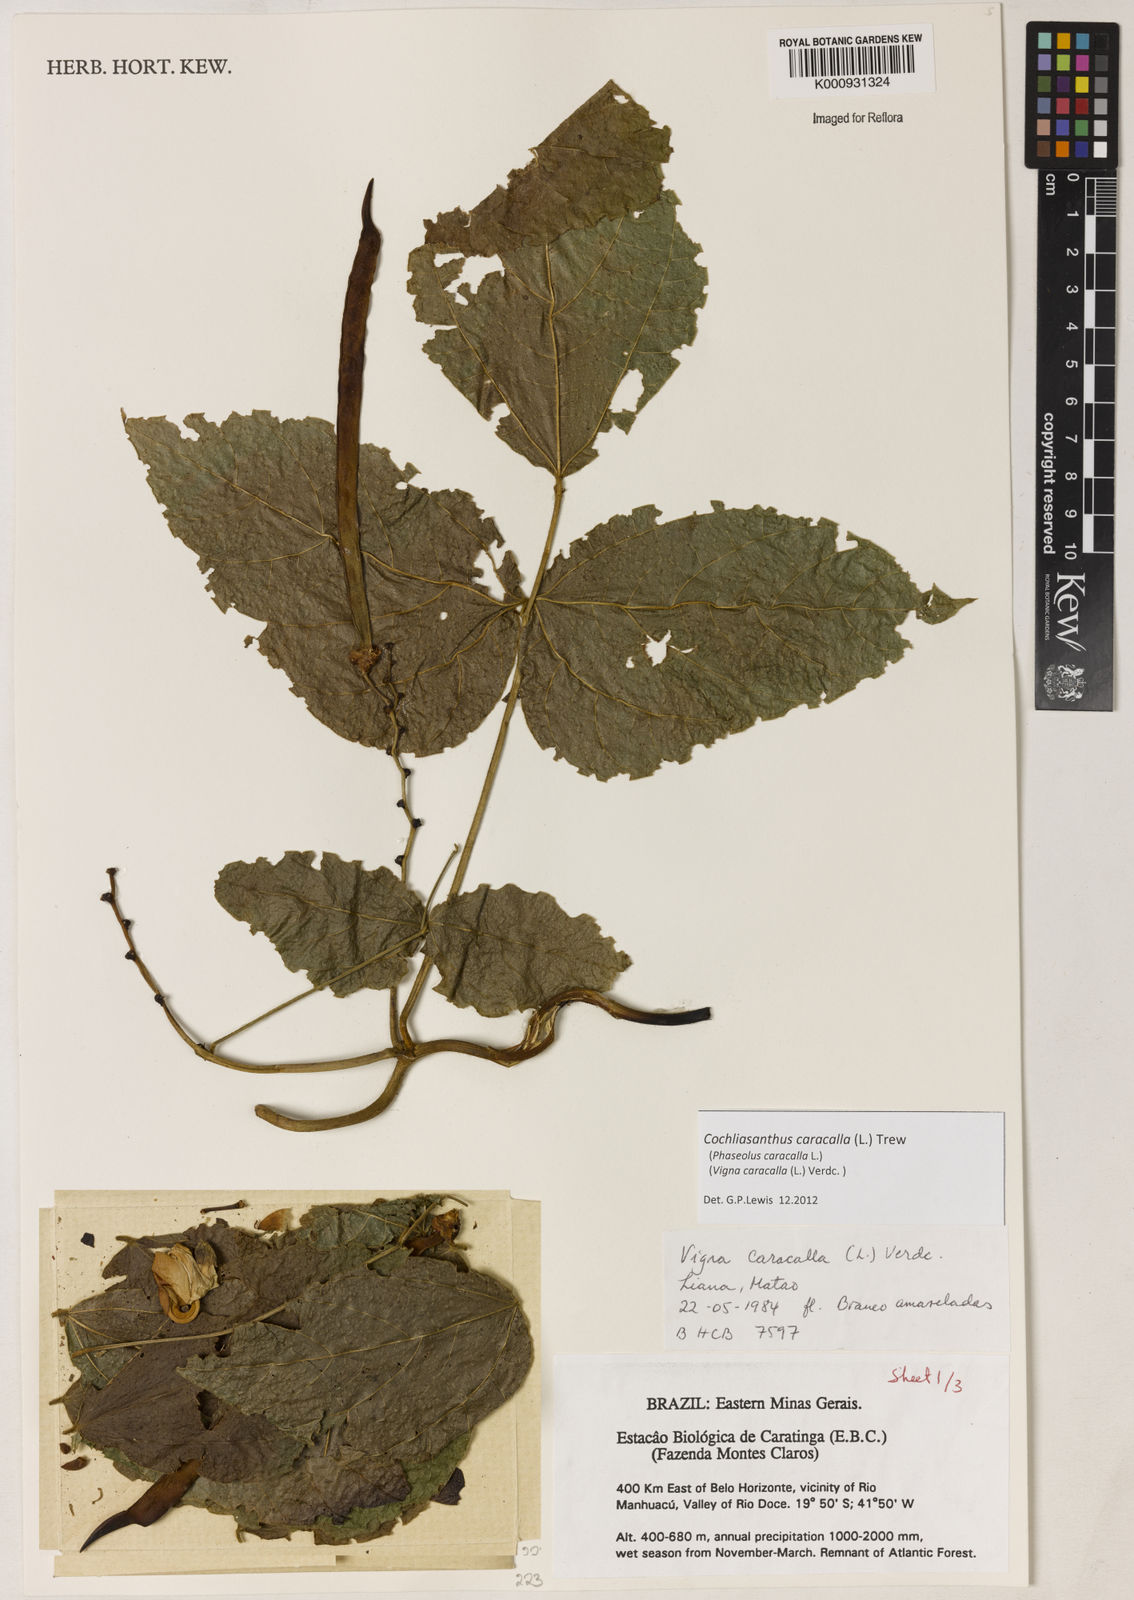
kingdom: Plantae
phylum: Tracheophyta
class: Magnoliopsida
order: Fabales
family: Fabaceae
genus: Cochliasanthus
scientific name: Cochliasanthus caracalla
